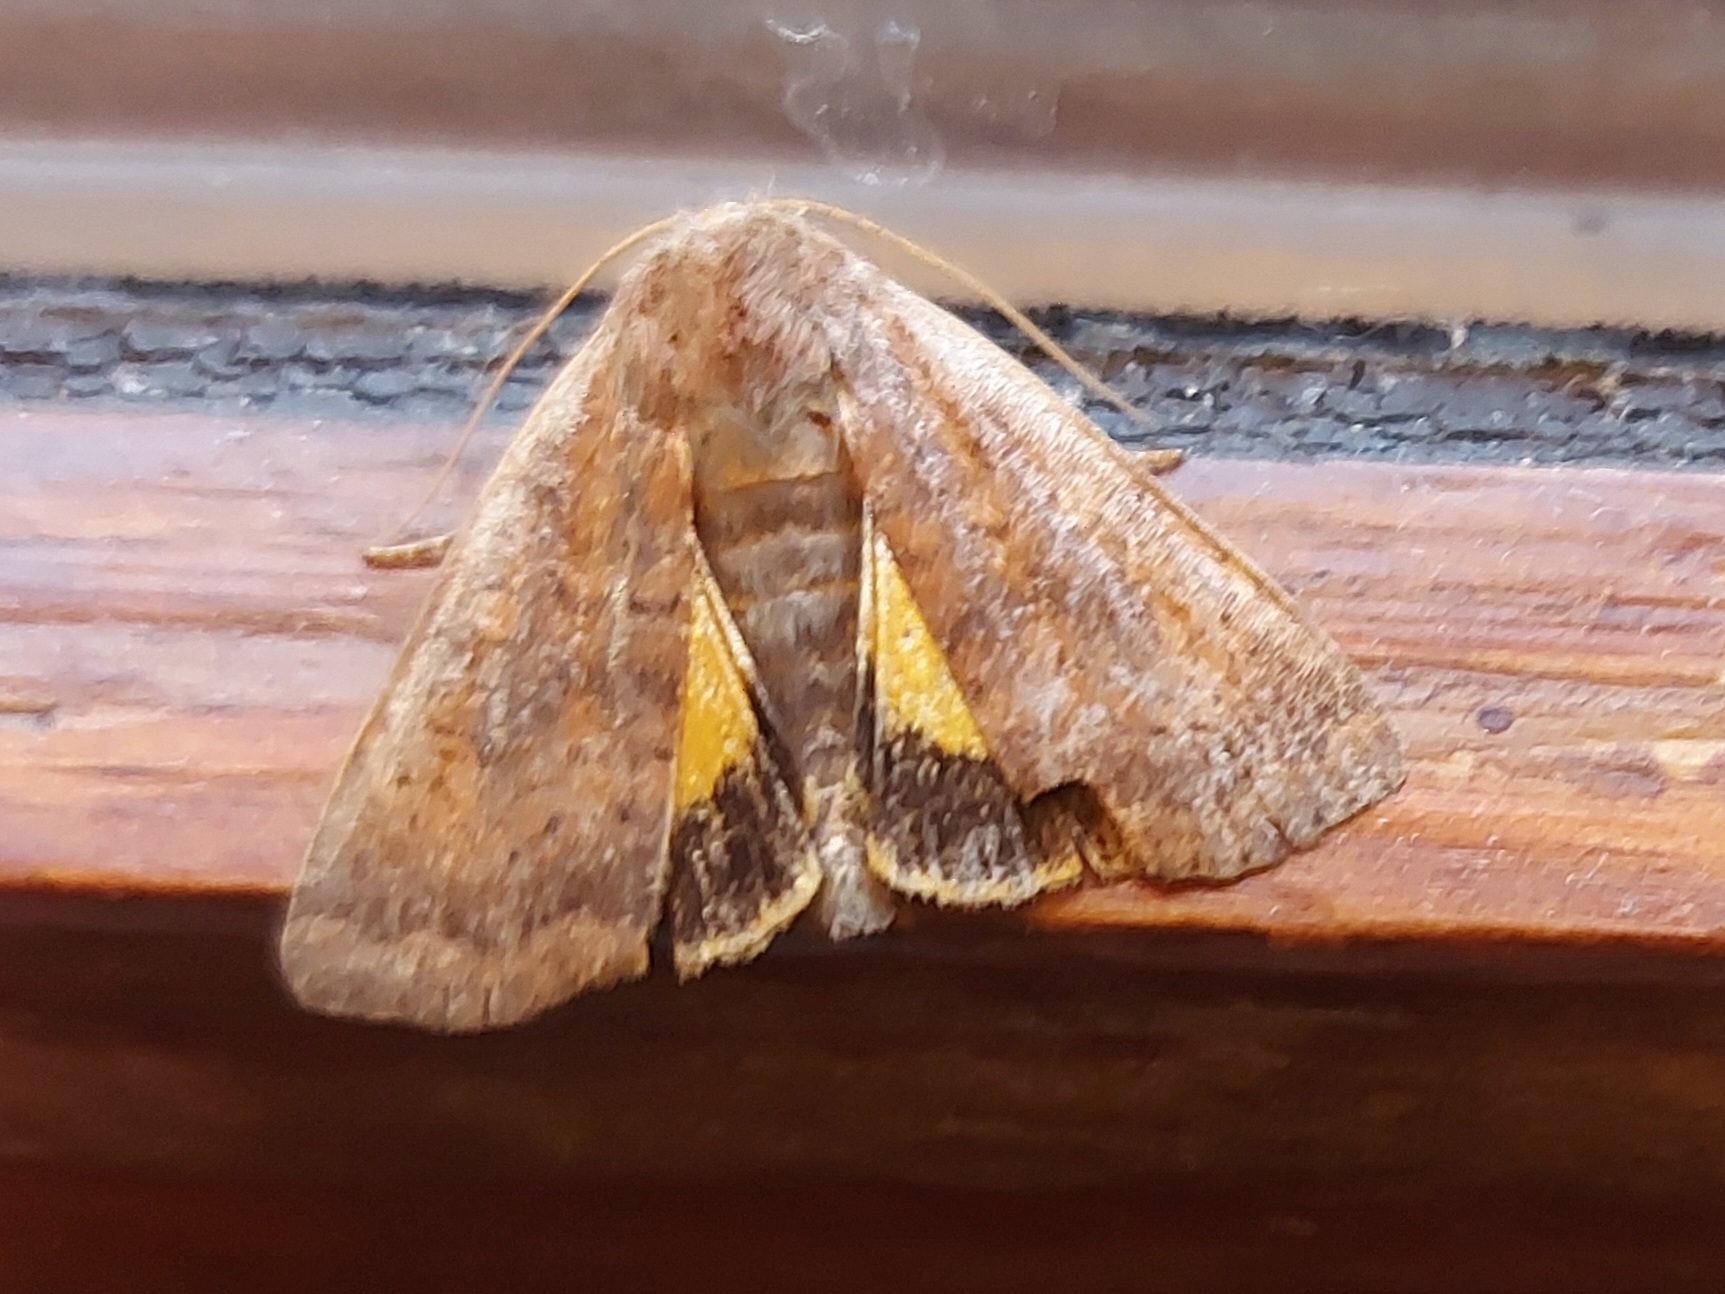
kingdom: Animalia
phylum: Arthropoda
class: Insecta
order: Lepidoptera
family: Noctuidae
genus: Noctua
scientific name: Noctua interjecta
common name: Mørksømmet smutugle
